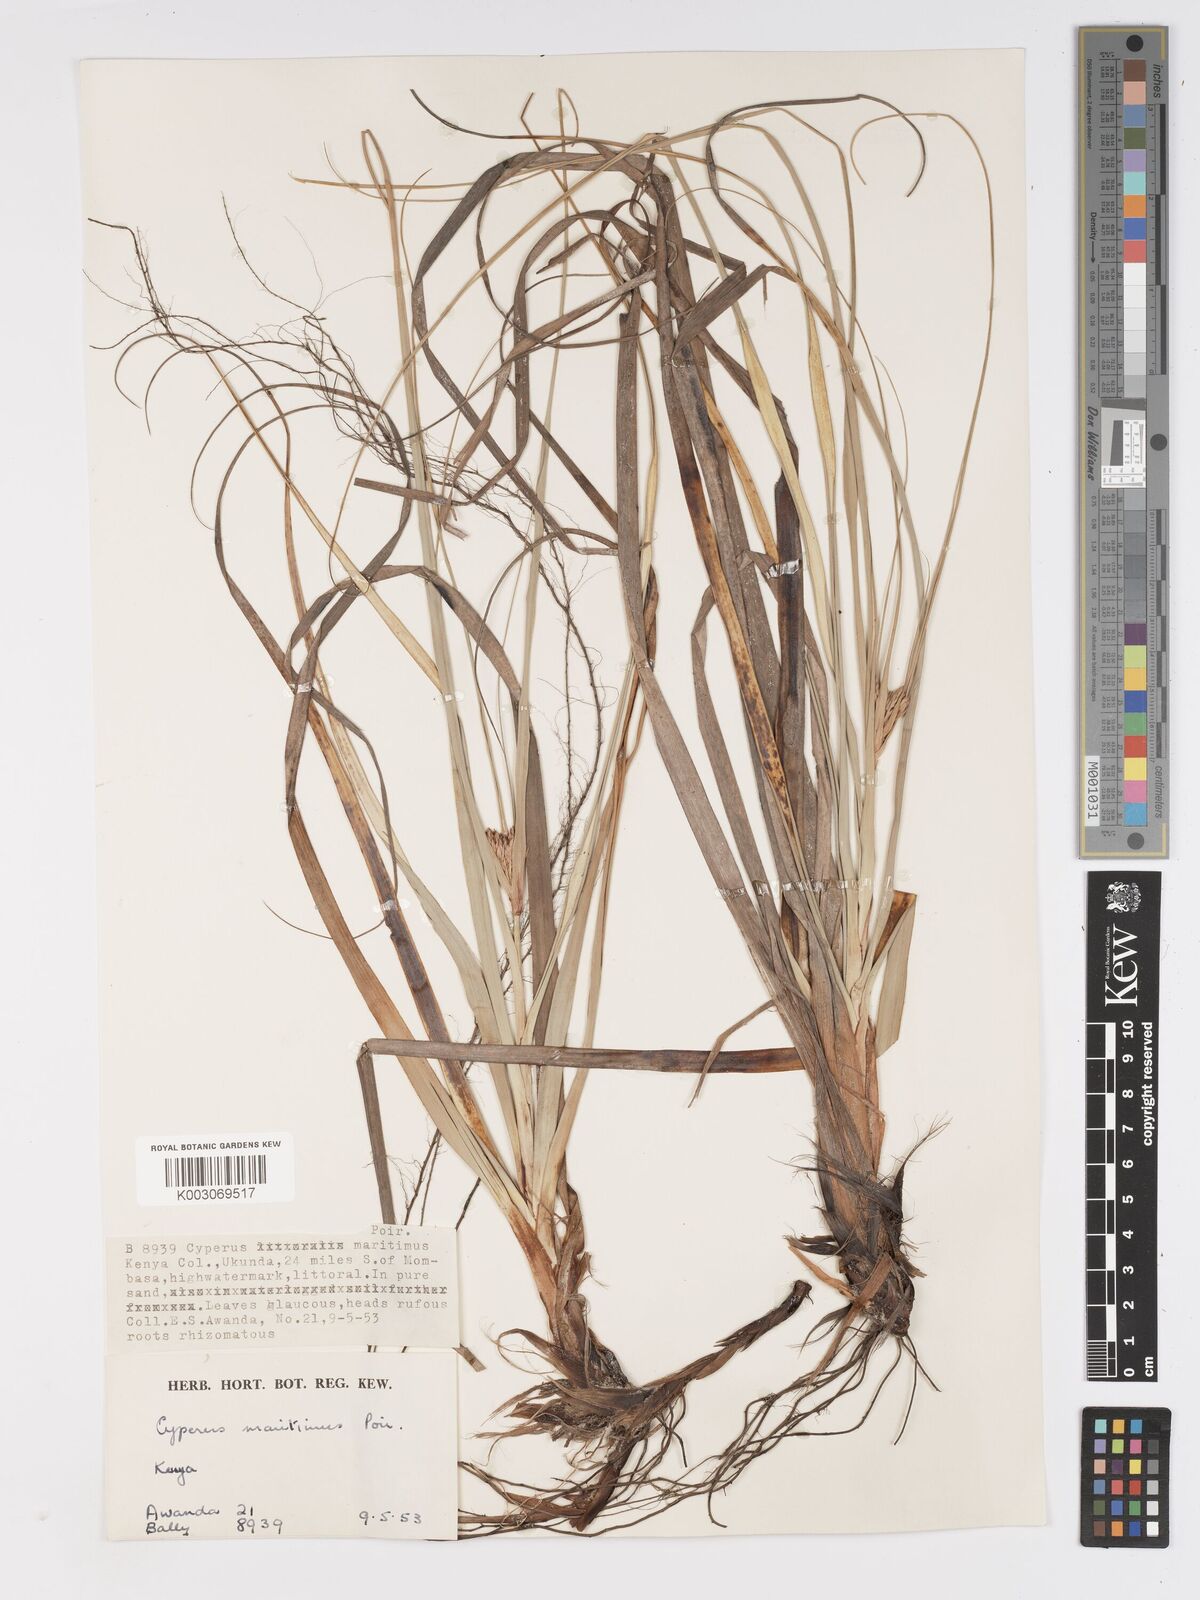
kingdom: Plantae
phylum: Tracheophyta
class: Liliopsida
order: Poales
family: Cyperaceae
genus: Cyperus
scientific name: Cyperus crassipes
